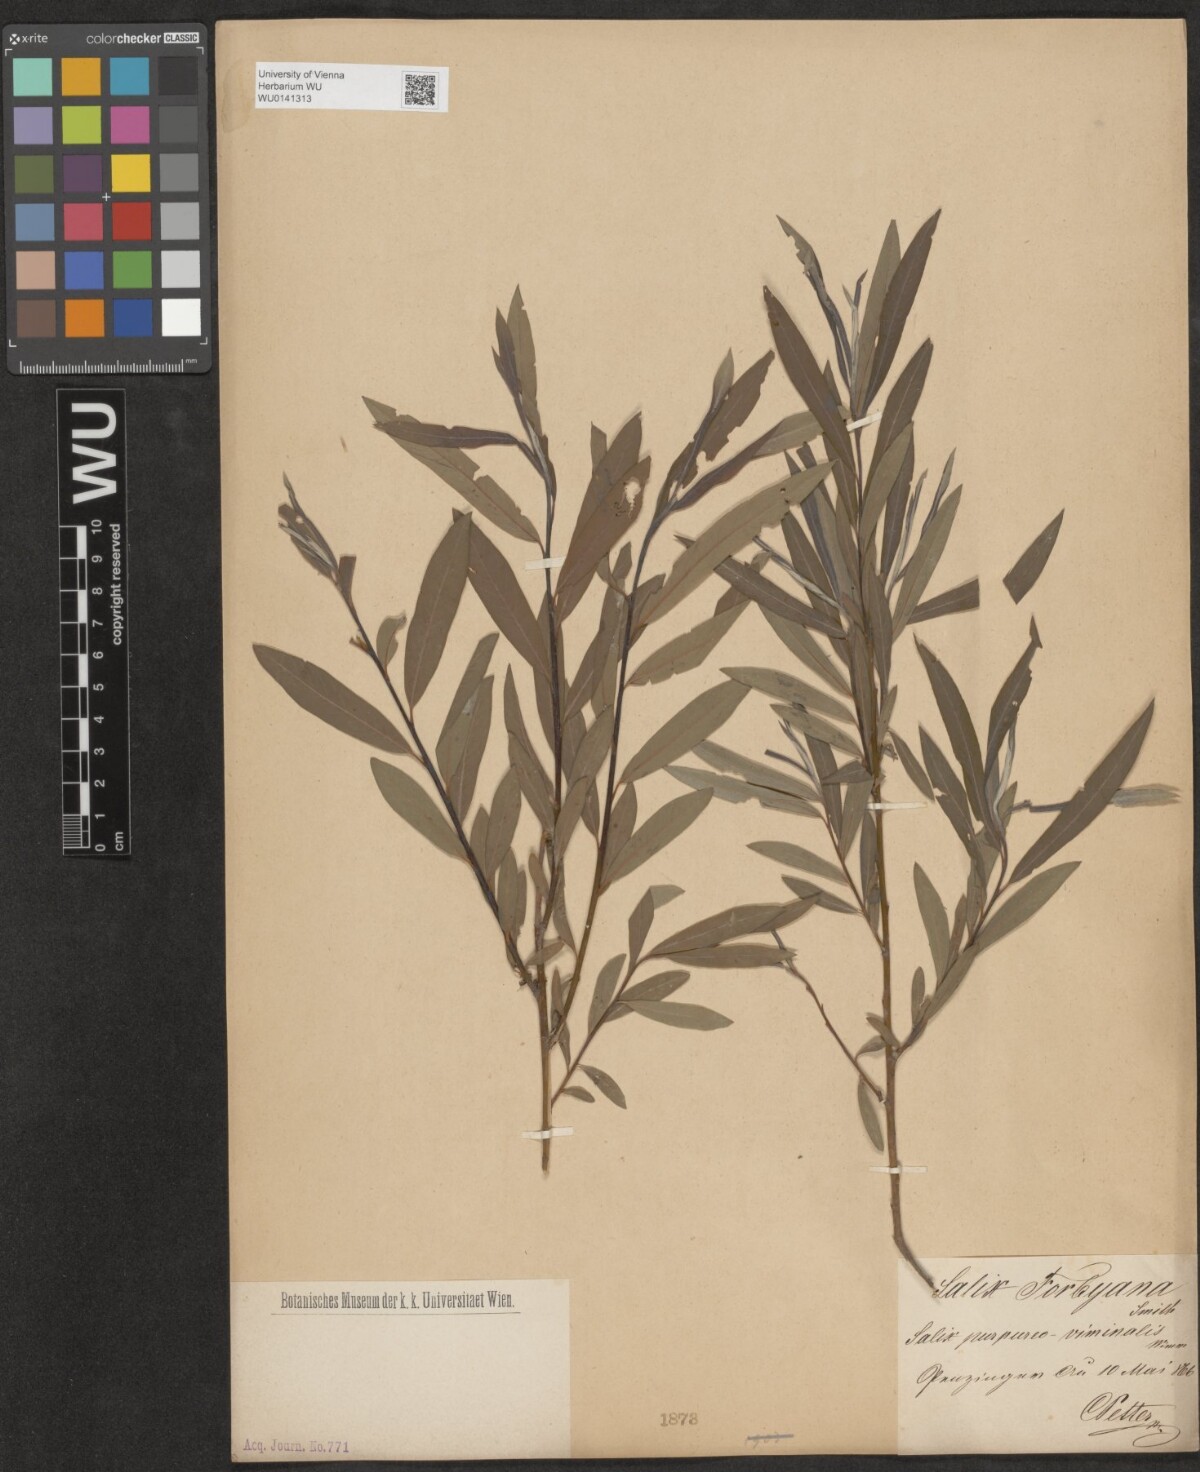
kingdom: Plantae
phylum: Tracheophyta
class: Magnoliopsida
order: Malpighiales
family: Salicaceae
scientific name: Salicaceae
